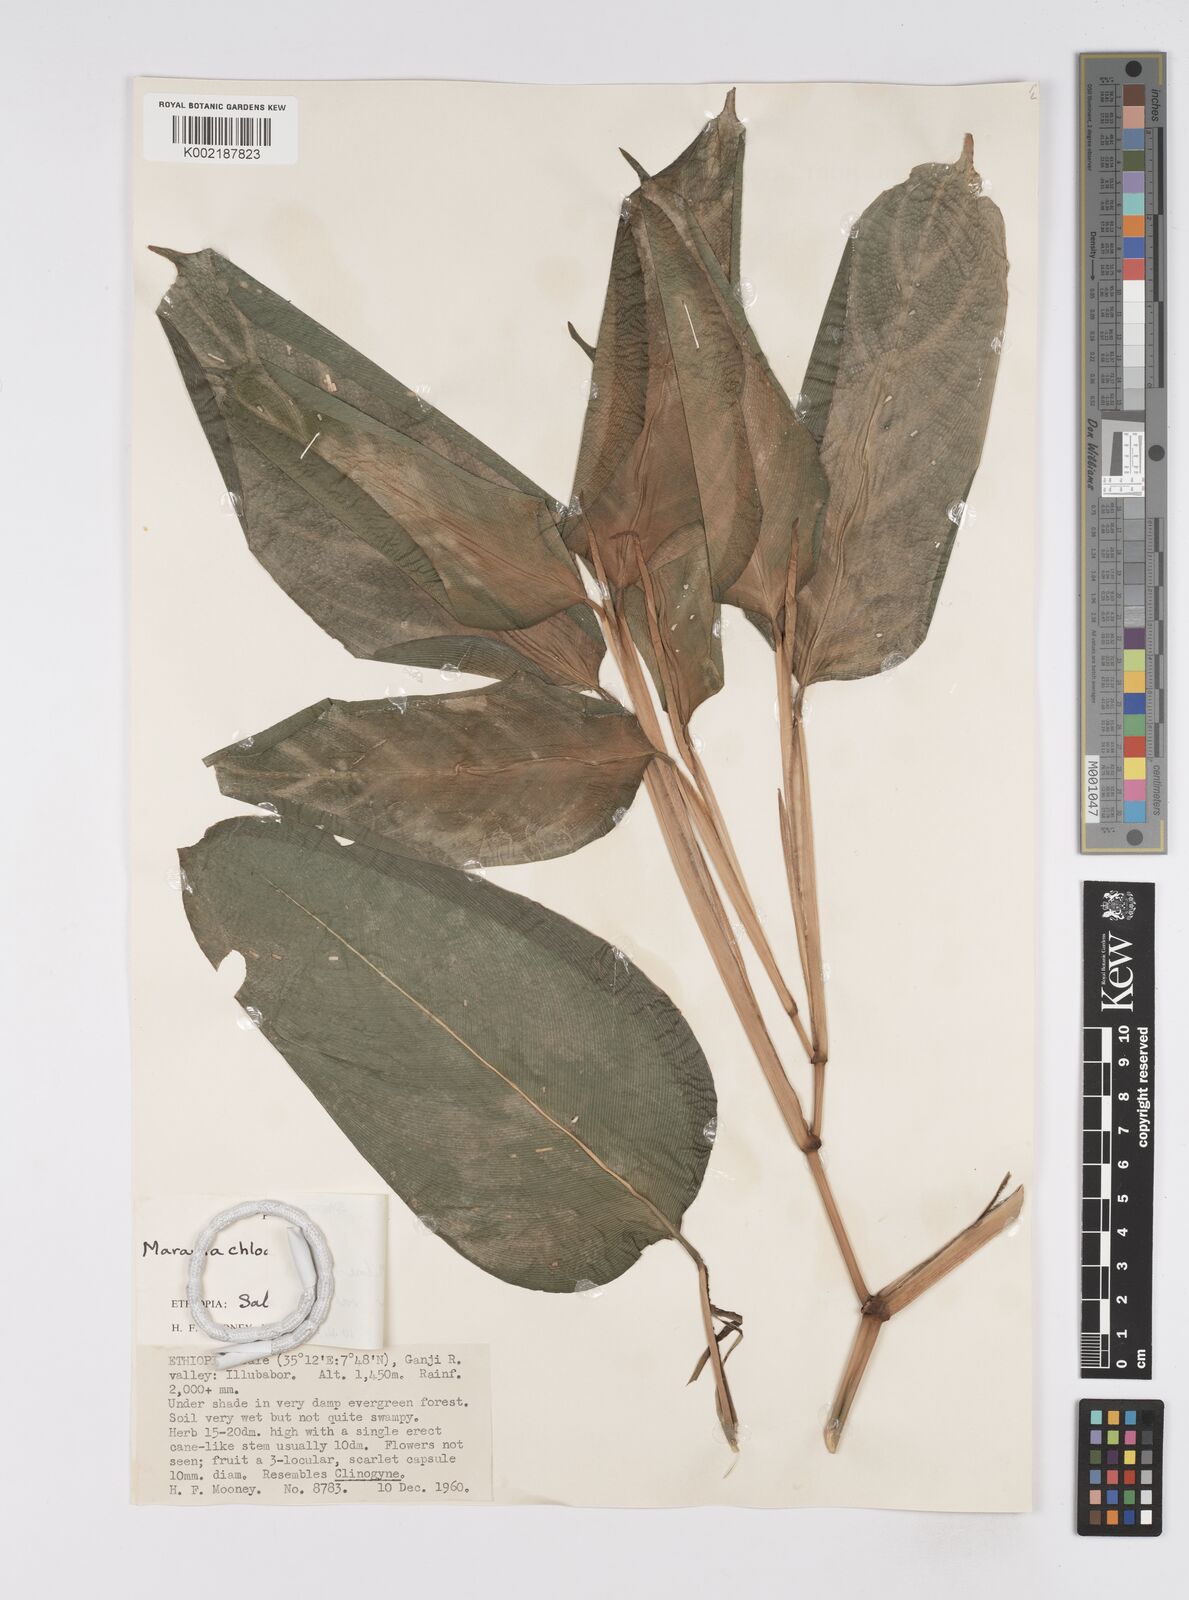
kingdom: Plantae
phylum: Tracheophyta
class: Liliopsida
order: Zingiberales
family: Marantaceae
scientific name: Marantaceae
